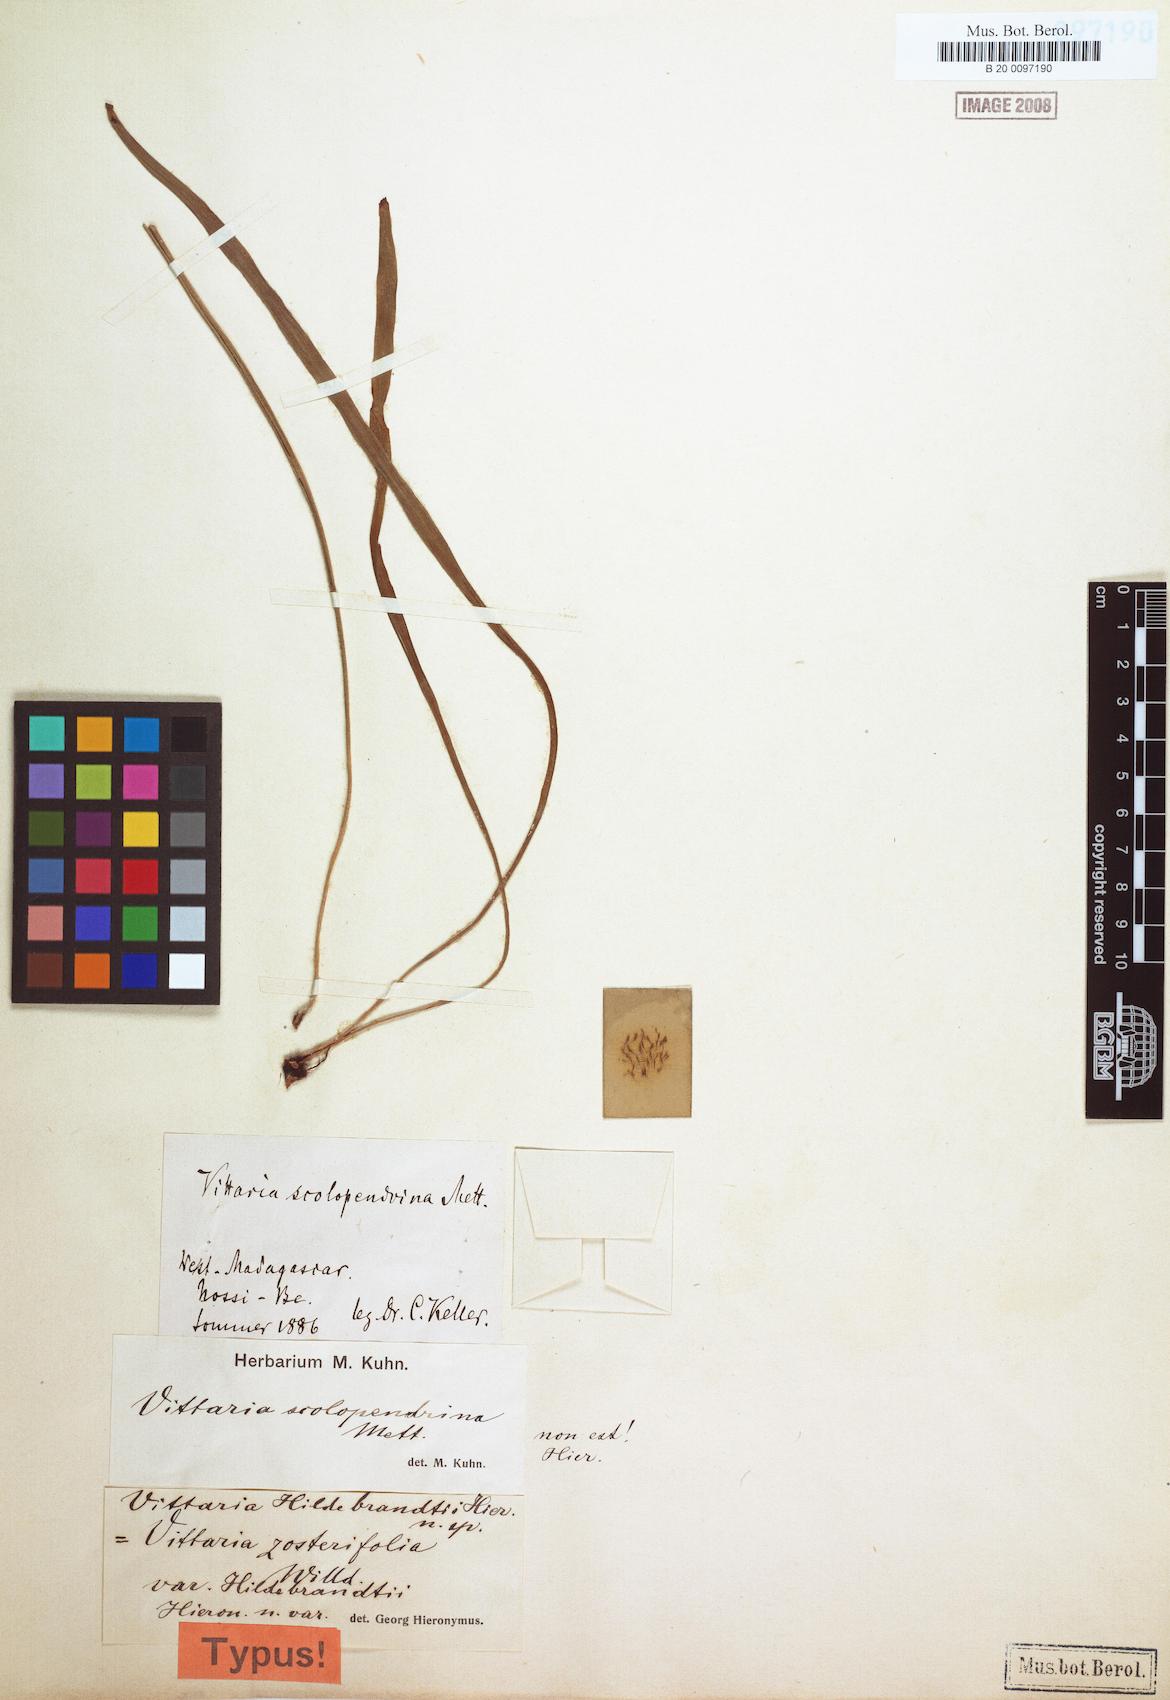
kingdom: Plantae
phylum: Tracheophyta
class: Polypodiopsida
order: Polypodiales
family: Pteridaceae
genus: Haplopteris
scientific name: Haplopteris elongata
